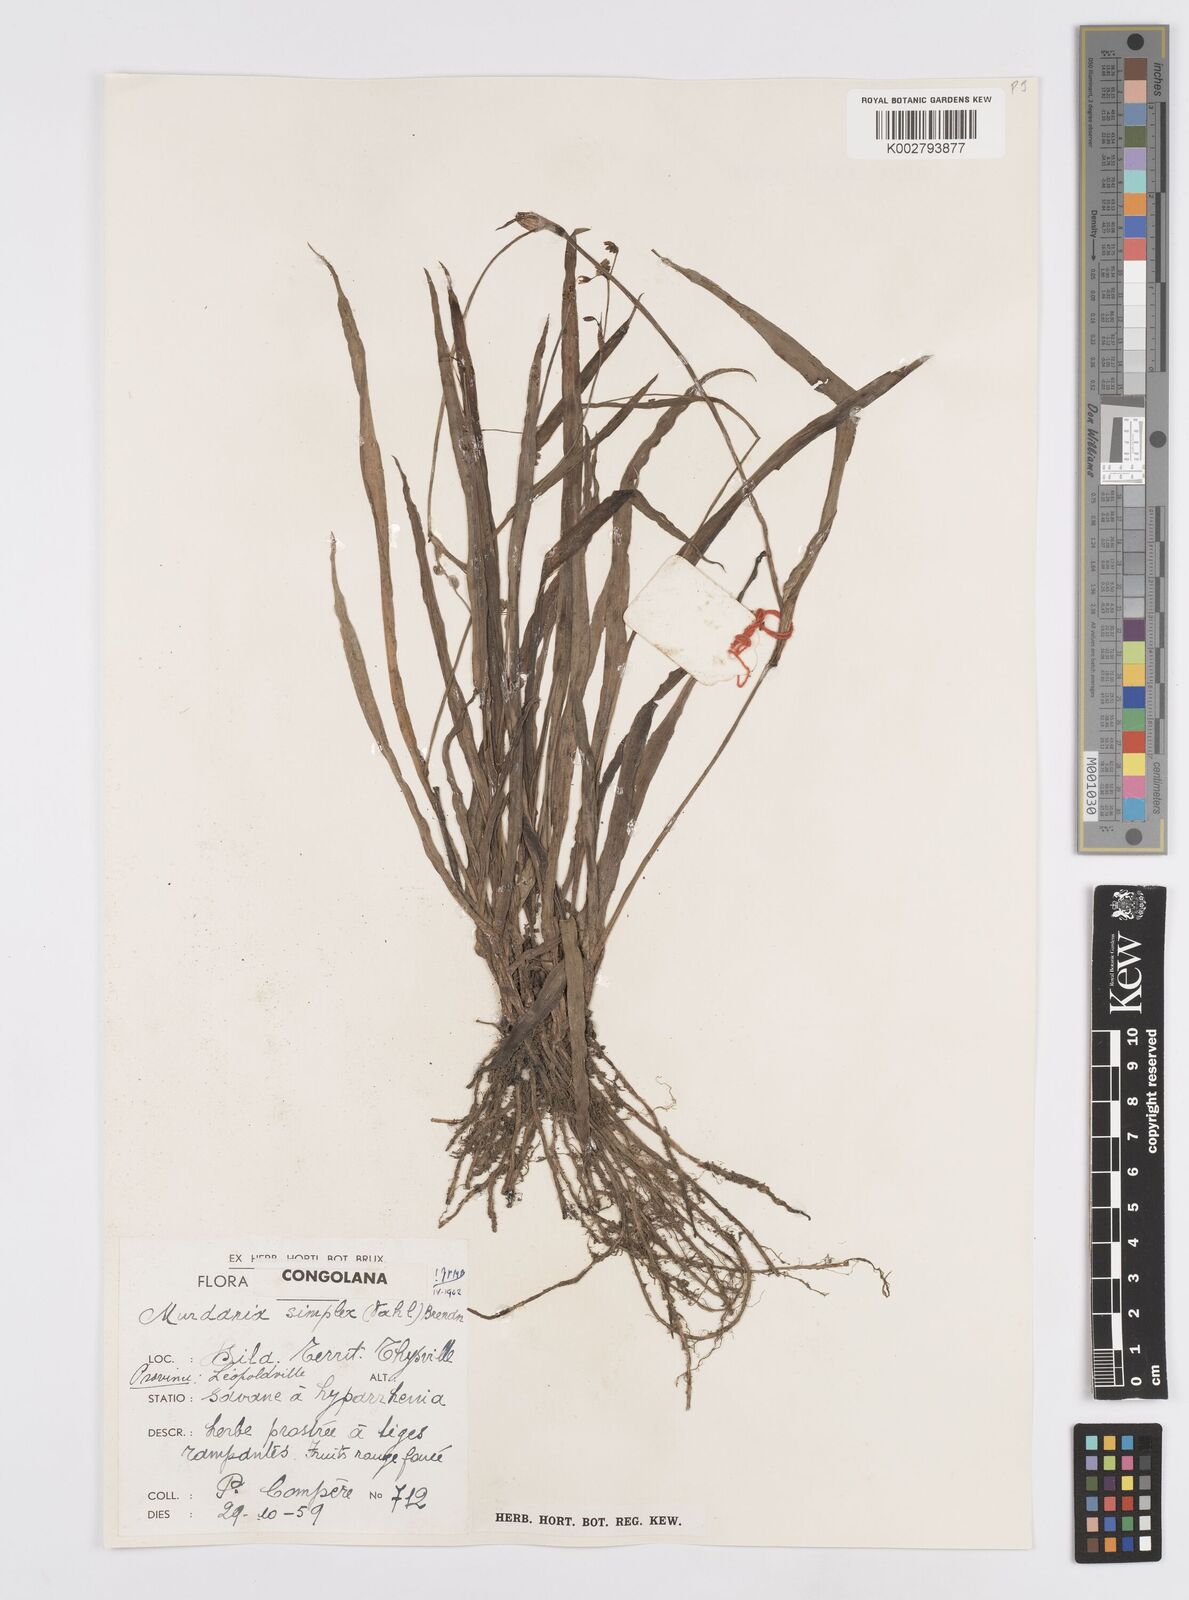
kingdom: Plantae
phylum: Tracheophyta
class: Liliopsida
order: Commelinales
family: Commelinaceae
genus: Murdannia
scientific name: Murdannia simplex
